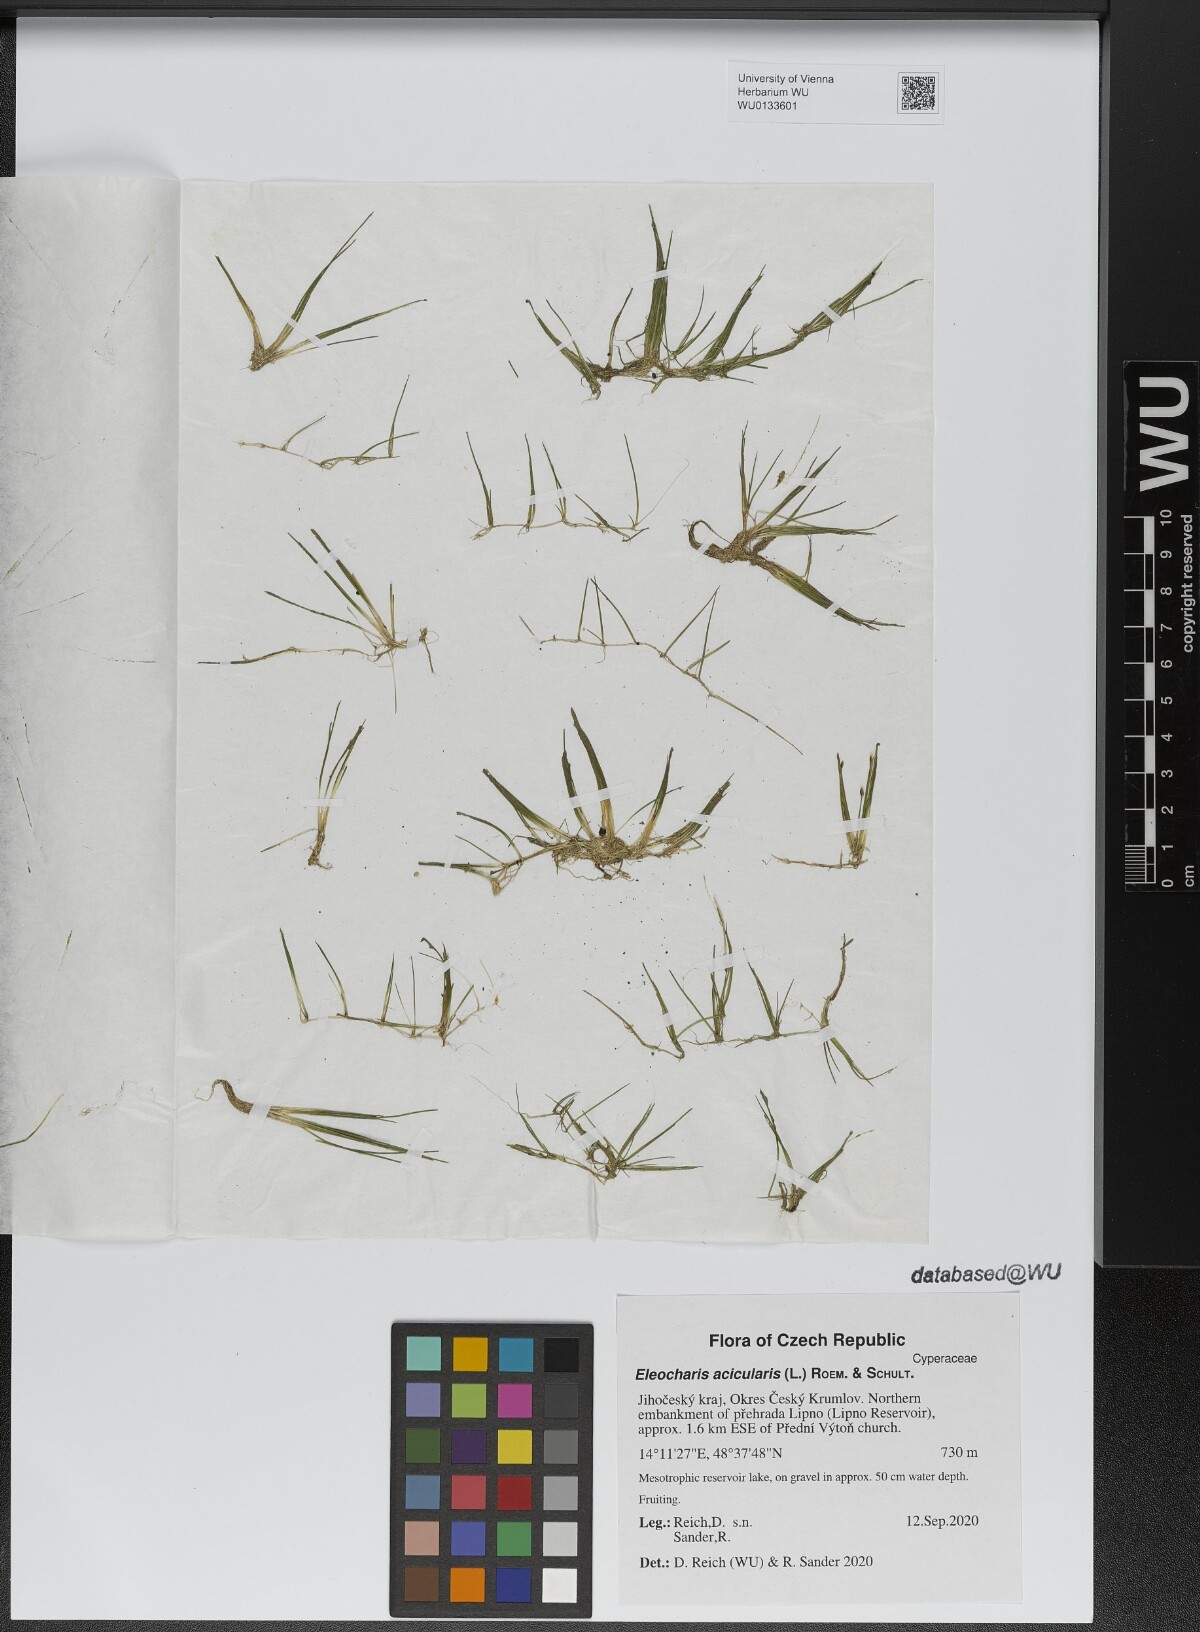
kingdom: Plantae
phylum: Tracheophyta
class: Liliopsida
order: Poales
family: Cyperaceae
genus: Eleocharis
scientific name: Eleocharis acicularis
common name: Needle spike-rush
